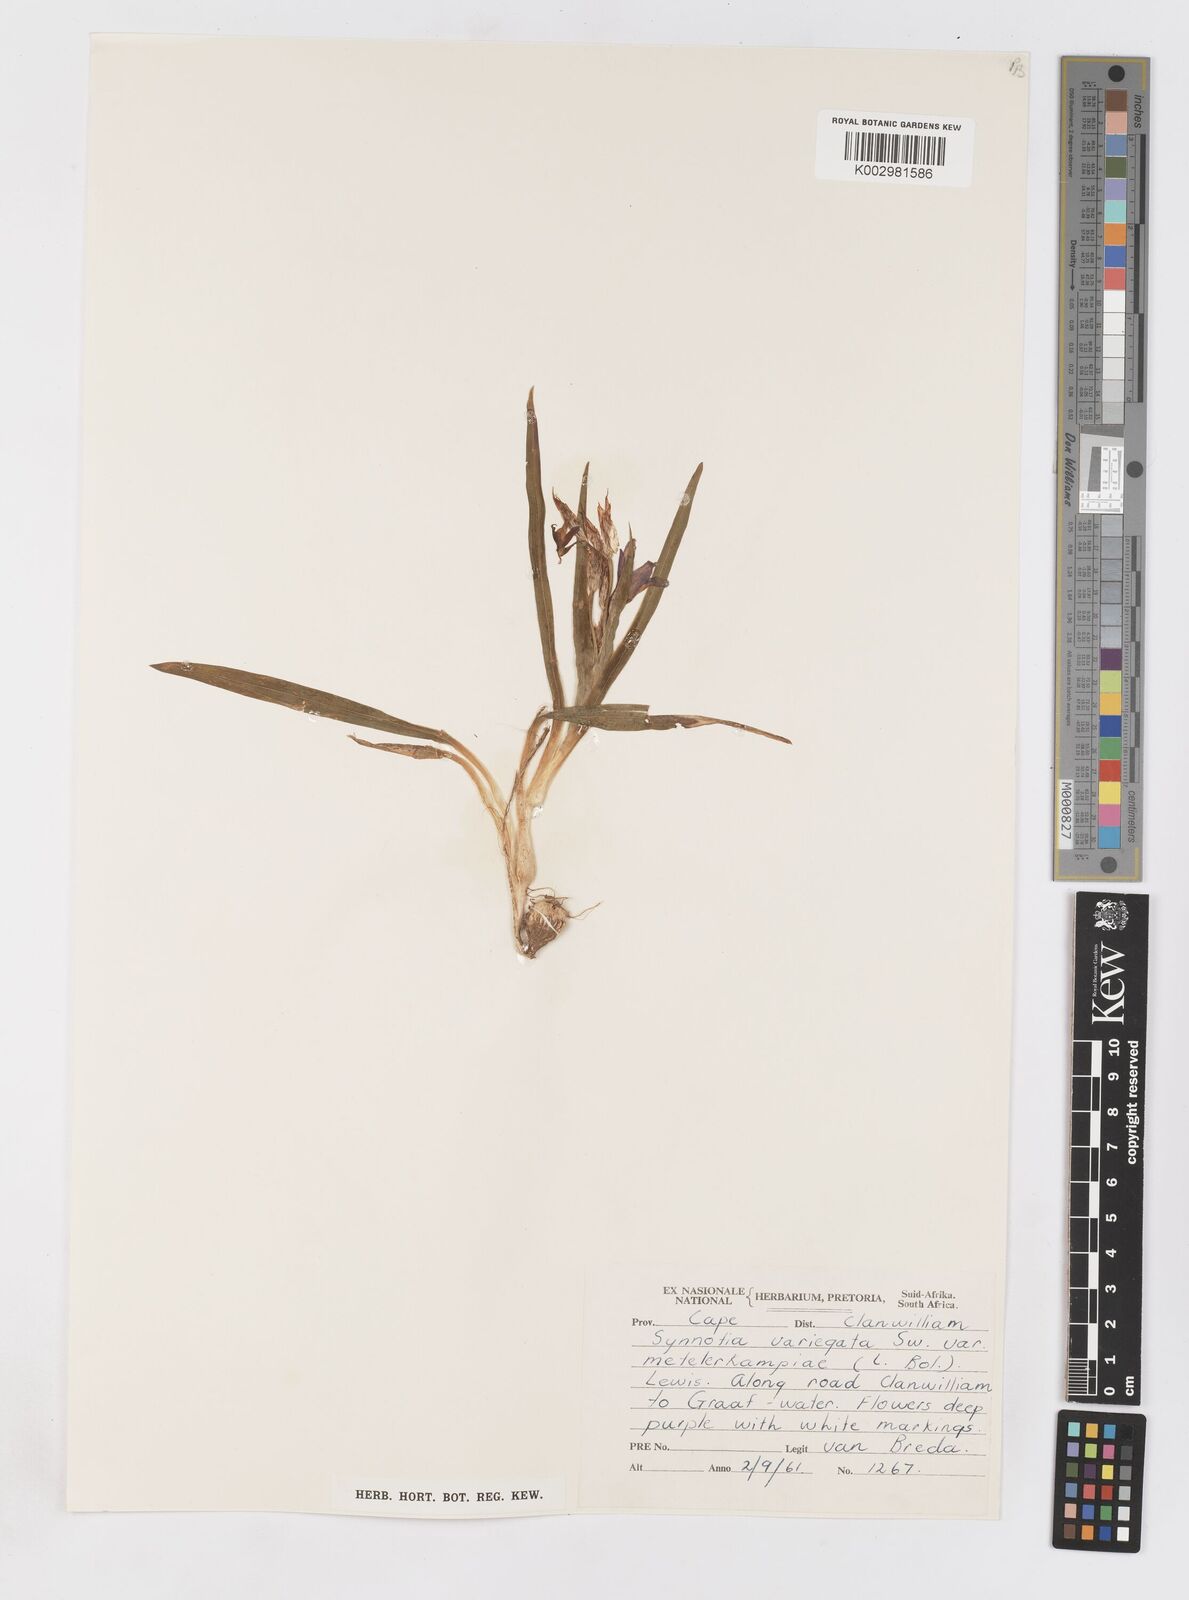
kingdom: Plantae
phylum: Tracheophyta
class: Liliopsida
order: Asparagales
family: Iridaceae
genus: Sparaxis
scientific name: Sparaxis metelerkampiae
